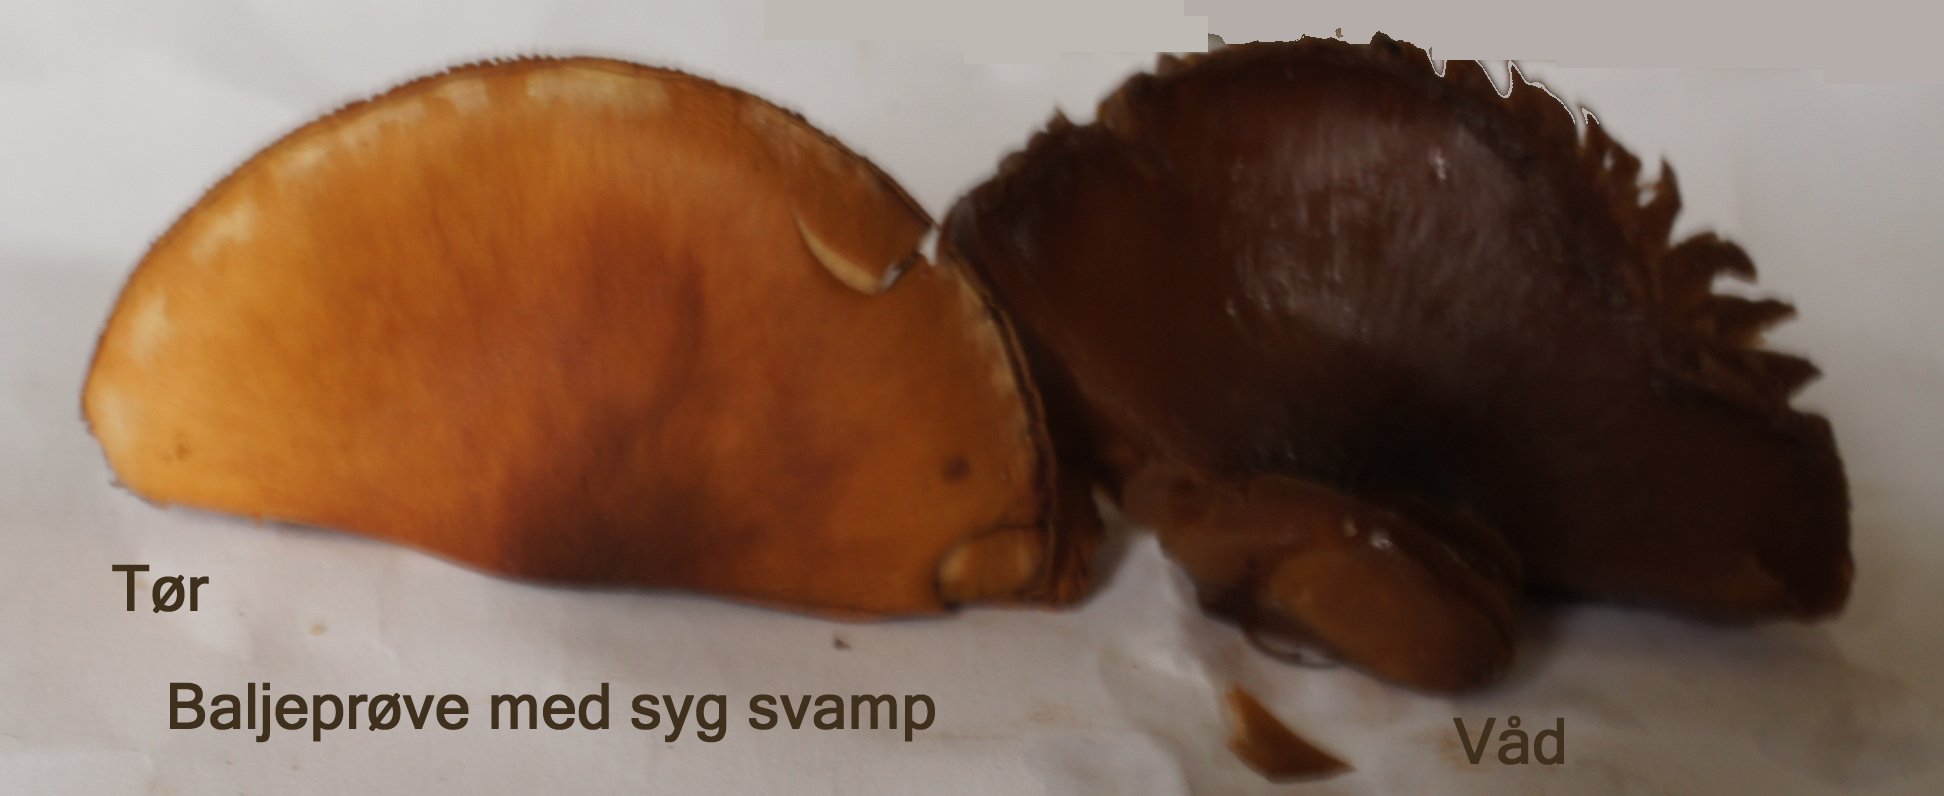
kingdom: Fungi
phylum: Basidiomycota
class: Agaricomycetes
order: Agaricales
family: Cortinariaceae
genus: Cortinarius
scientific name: Cortinarius malicorius
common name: grønkødet slørhat
